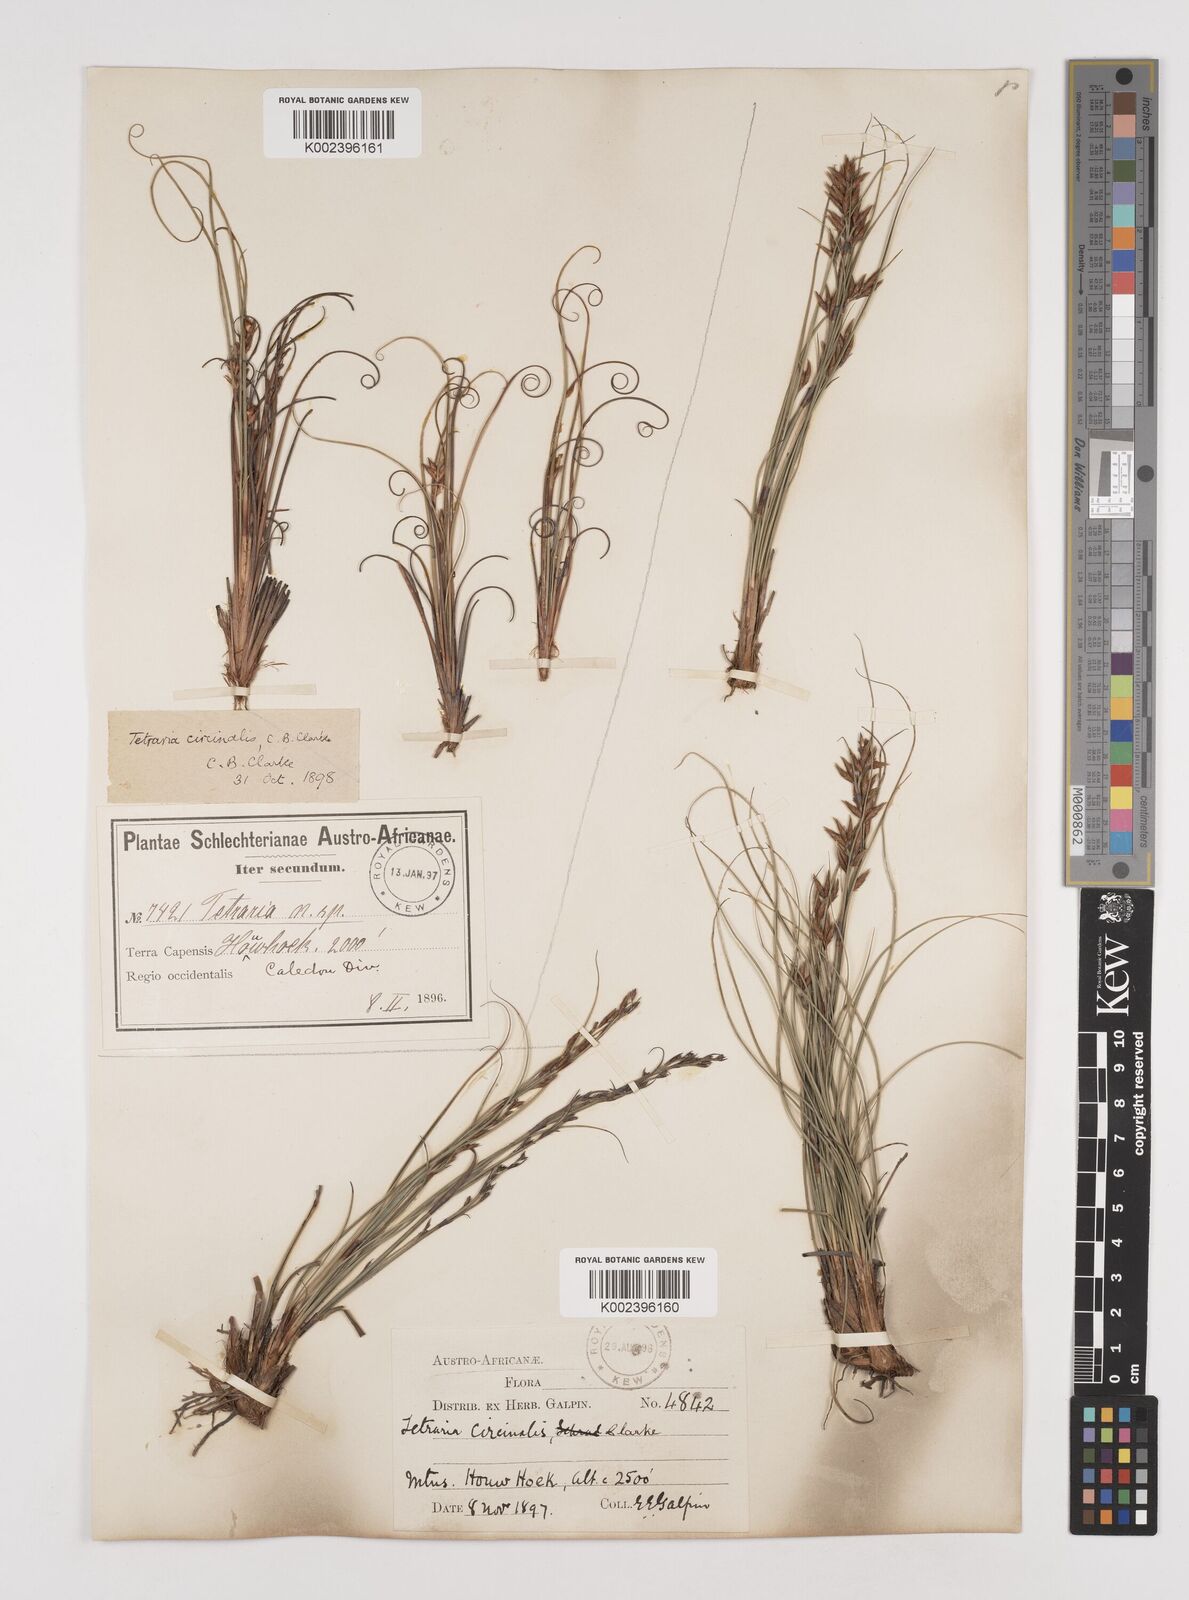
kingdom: Plantae
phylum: Tracheophyta
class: Liliopsida
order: Poales
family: Cyperaceae
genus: Tetraria
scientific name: Tetraria microstachys
